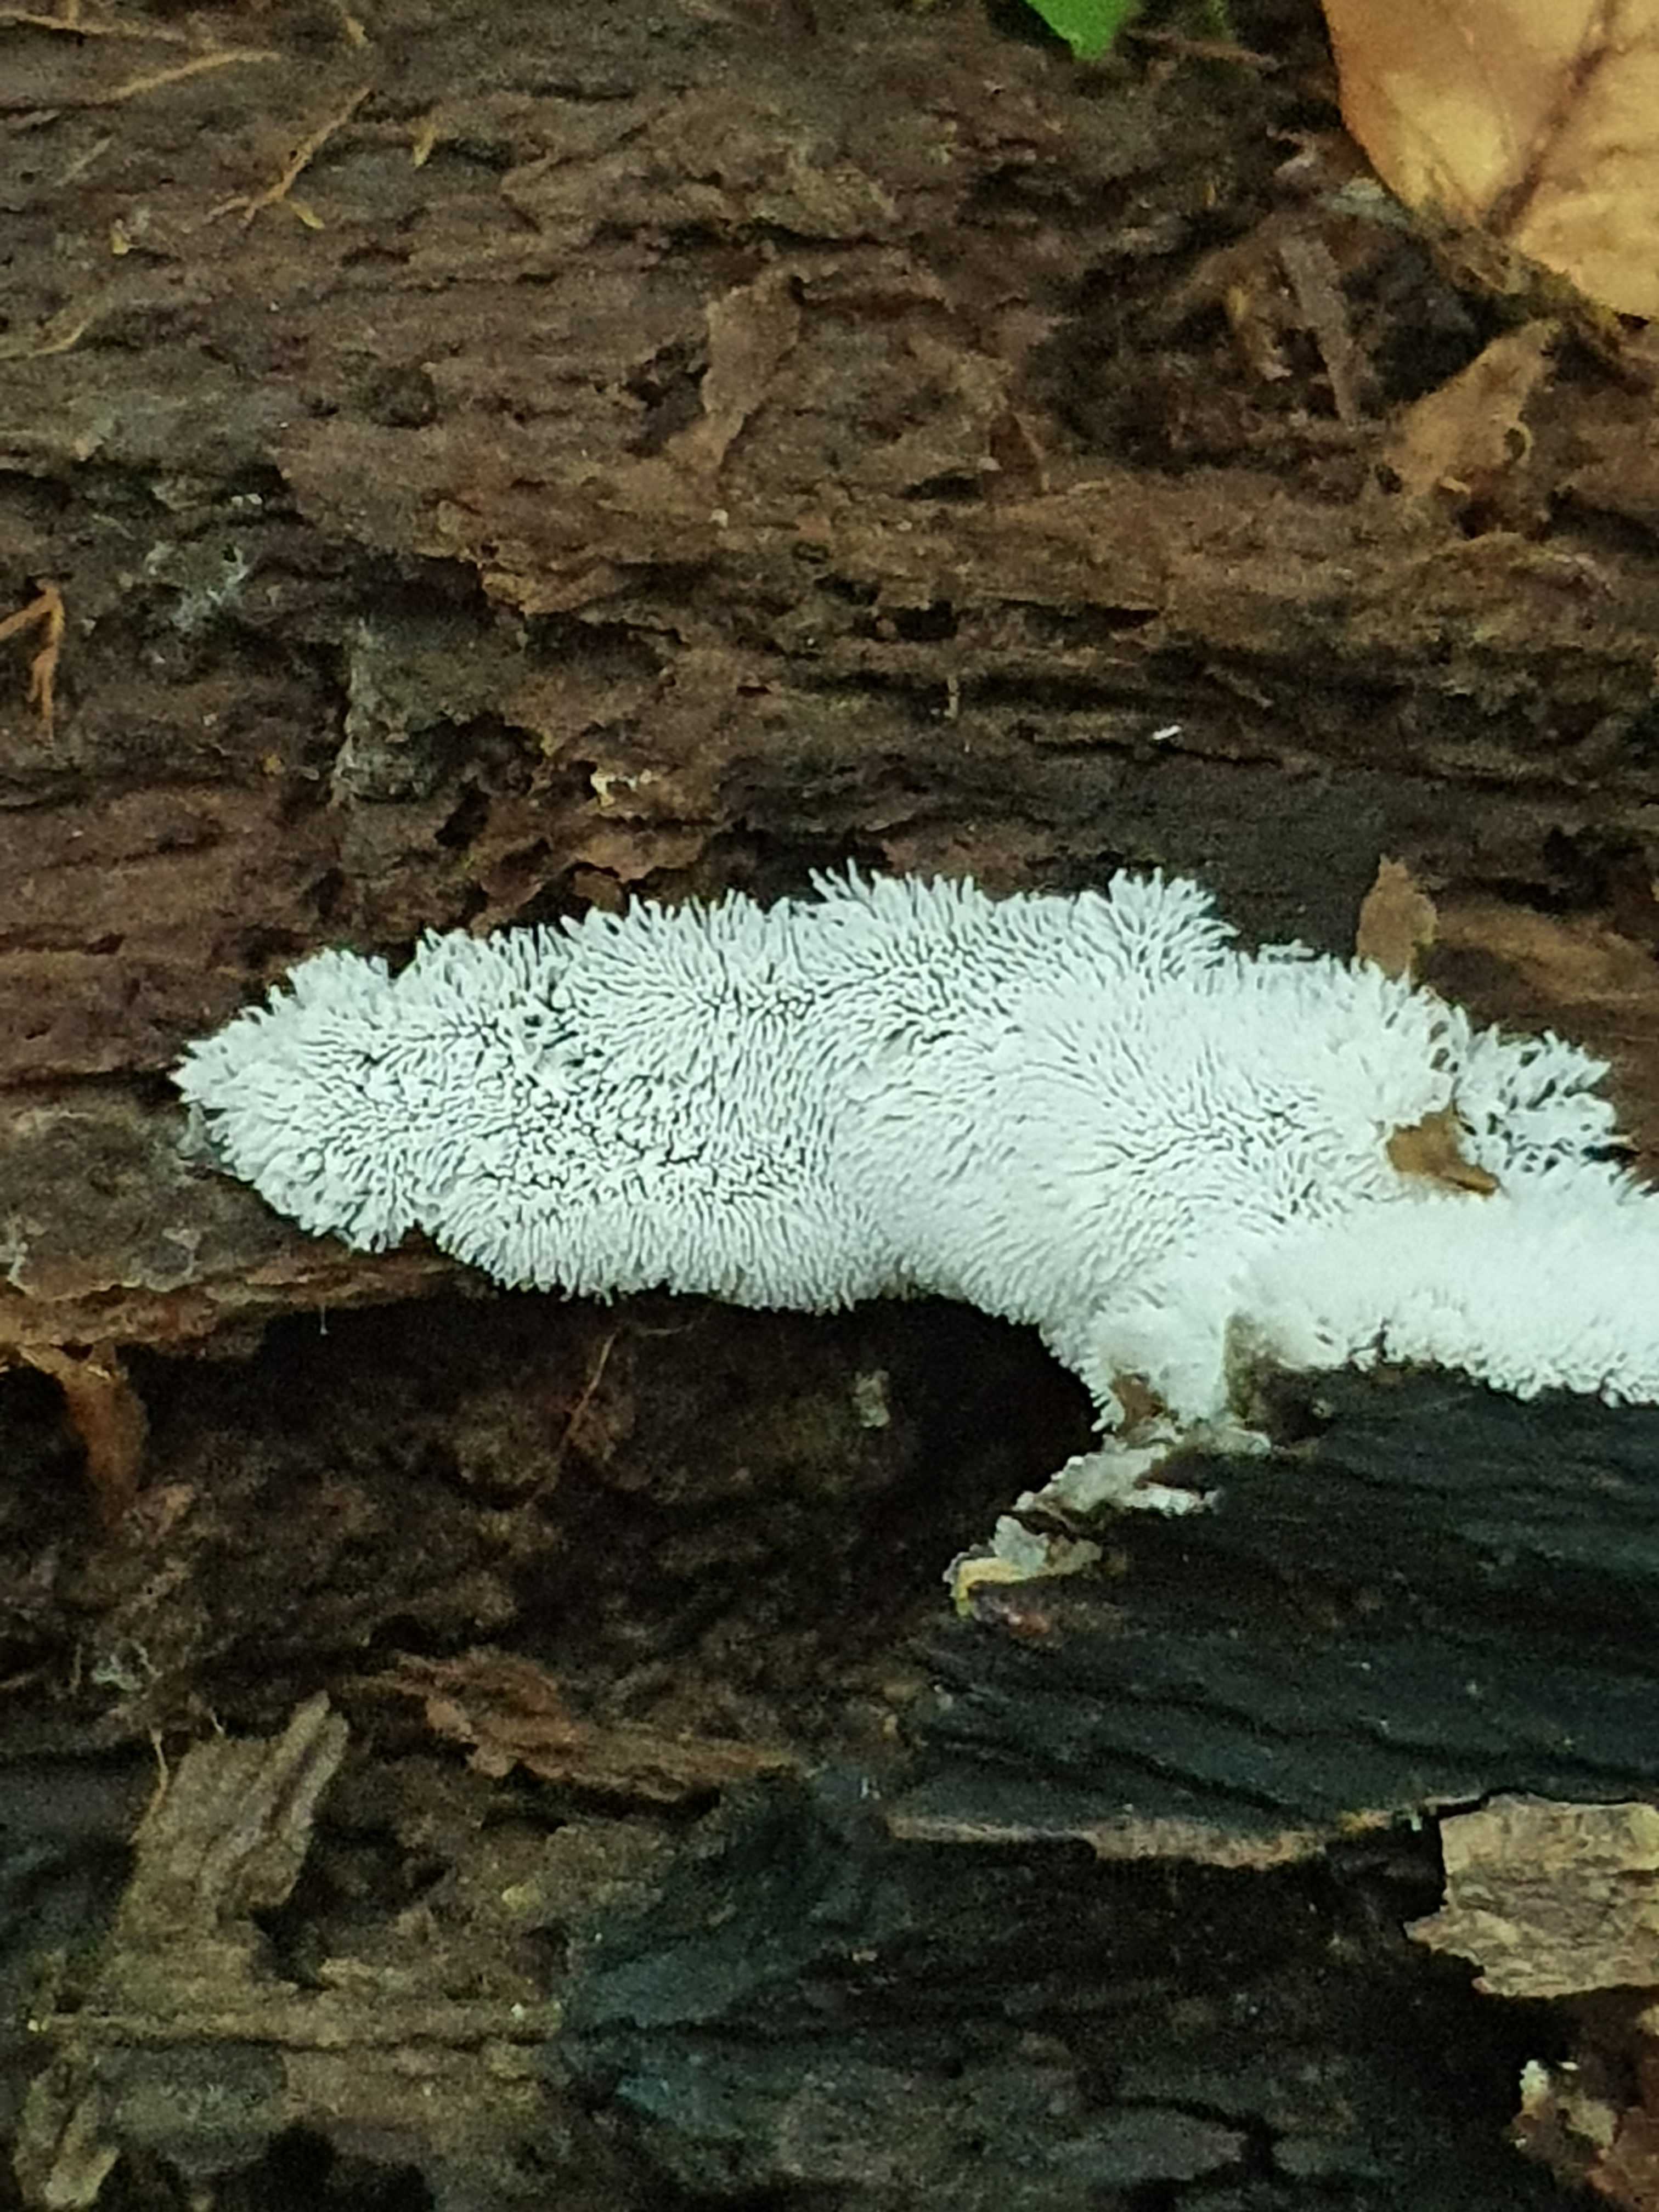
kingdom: Protozoa
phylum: Mycetozoa
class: Protosteliomycetes
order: Ceratiomyxales
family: Ceratiomyxaceae
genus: Ceratiomyxa
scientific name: Ceratiomyxa fruticulosa
